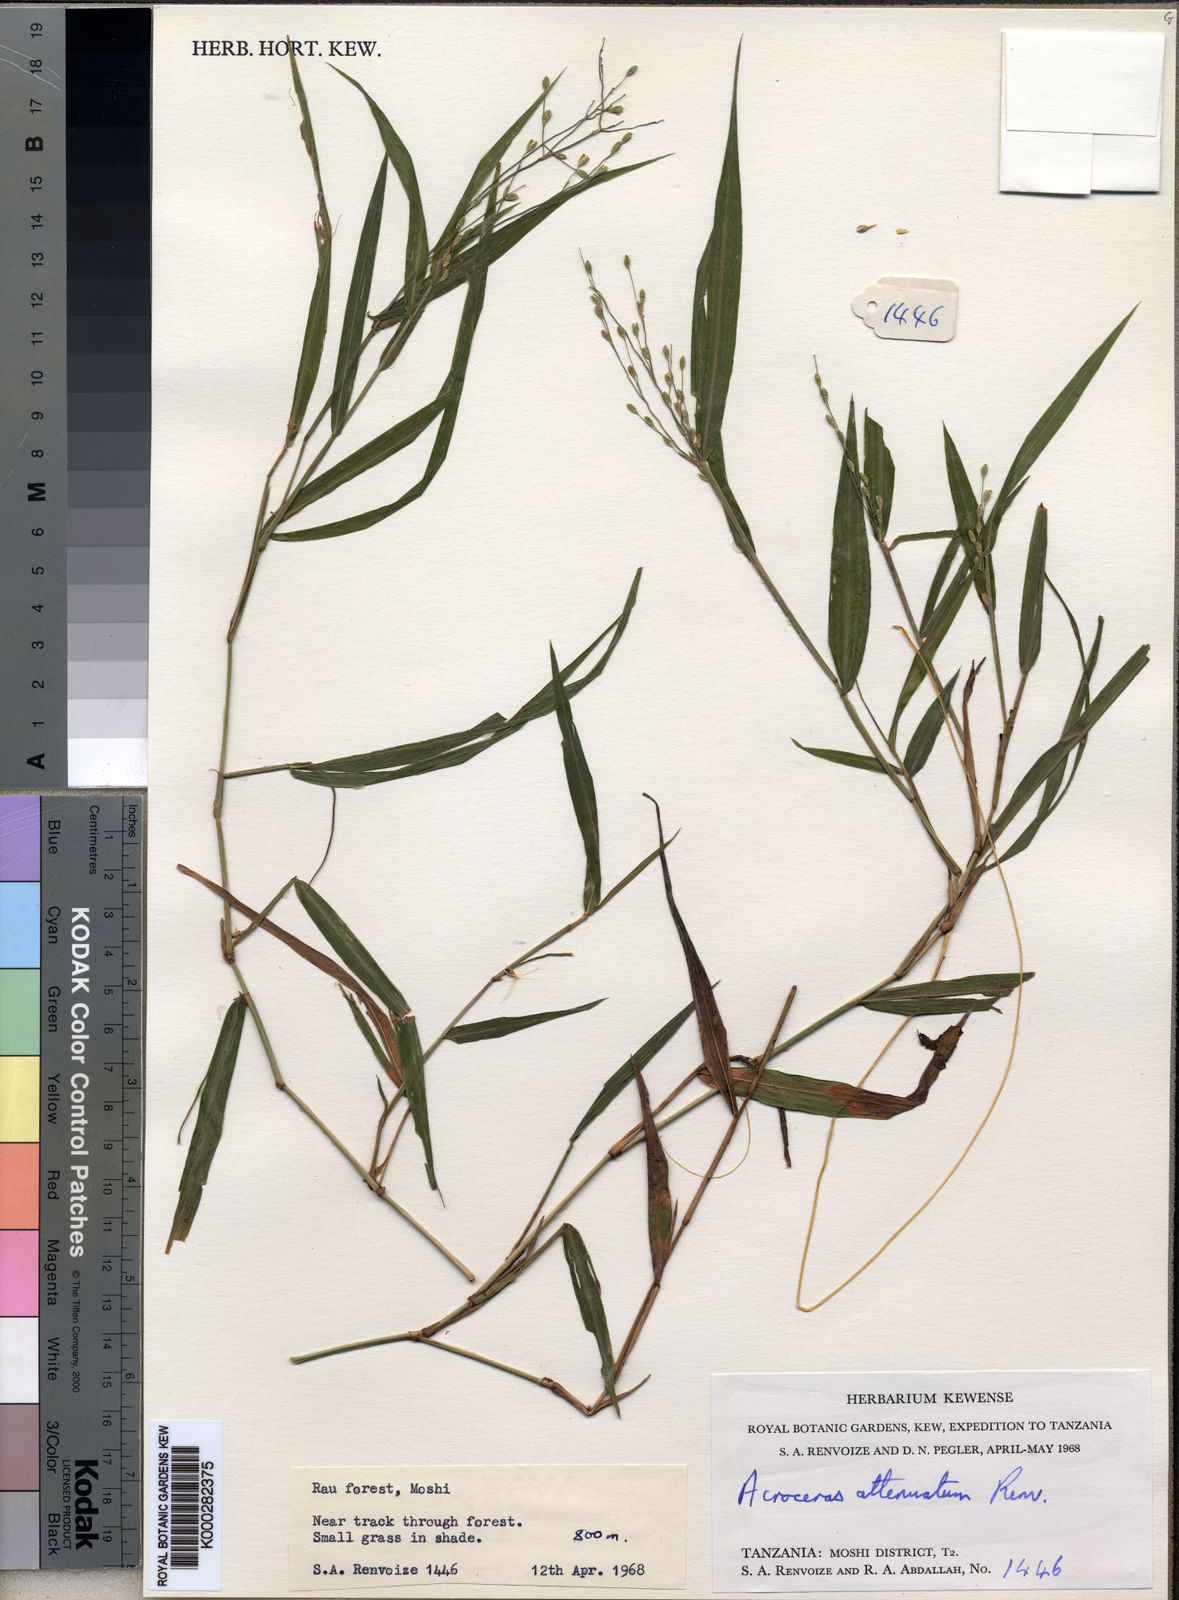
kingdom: Plantae
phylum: Tracheophyta
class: Liliopsida
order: Poales
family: Poaceae
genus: Acroceras
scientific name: Acroceras attenuatum
